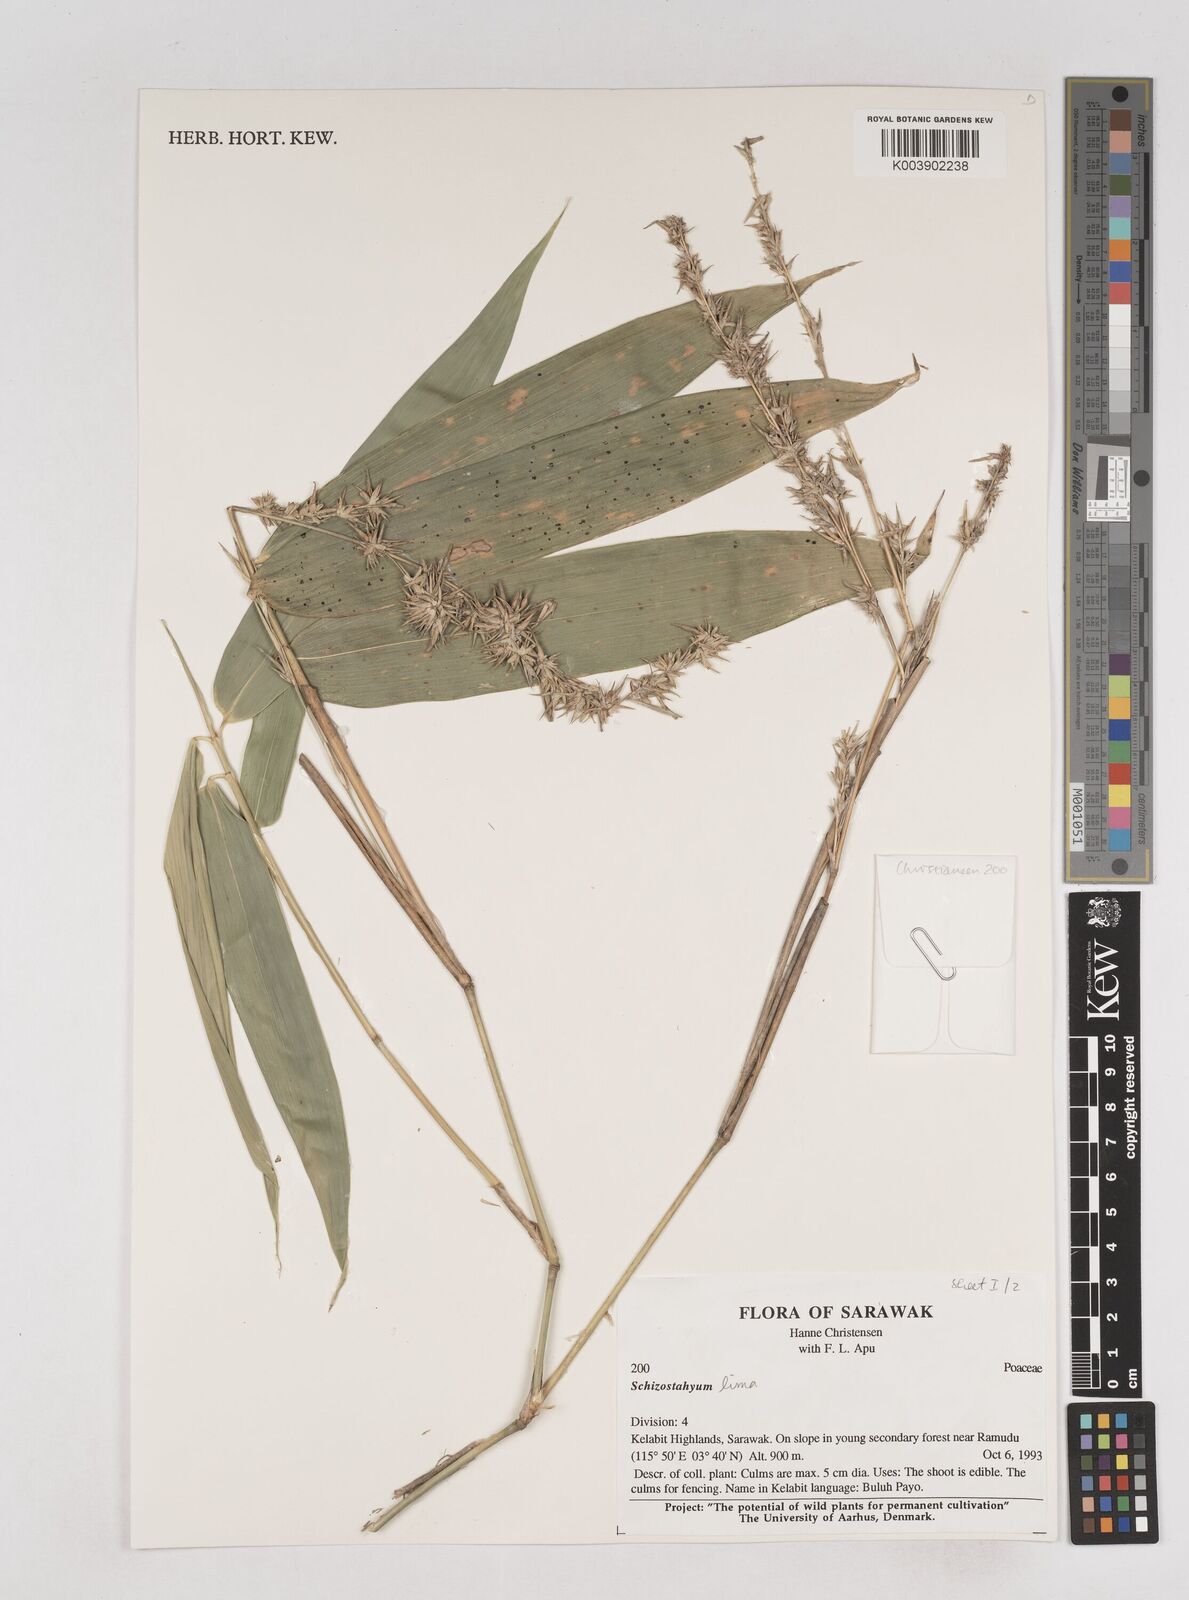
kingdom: Plantae
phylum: Tracheophyta
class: Liliopsida
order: Poales
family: Poaceae
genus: Schizostachyum
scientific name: Schizostachyum lima
